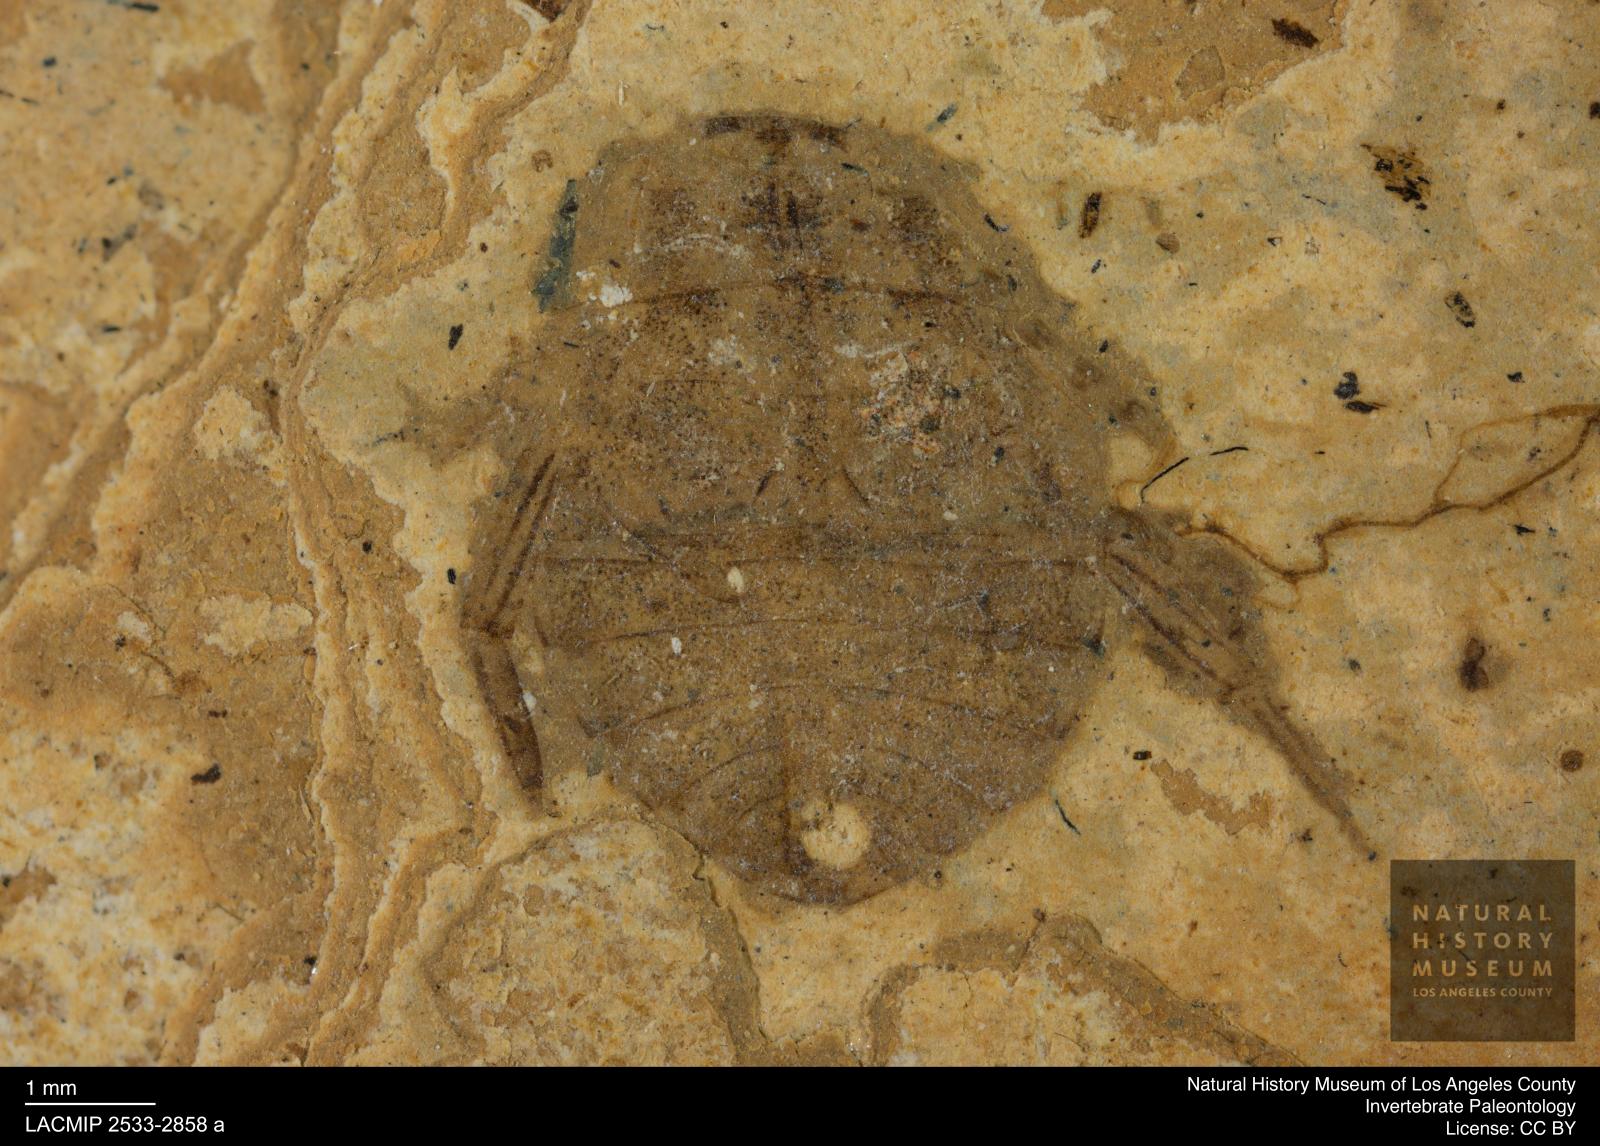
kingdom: Animalia
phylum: Arthropoda
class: Insecta
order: Hemiptera
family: Naucoridae
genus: Naucoris
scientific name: Naucoris rottensis
